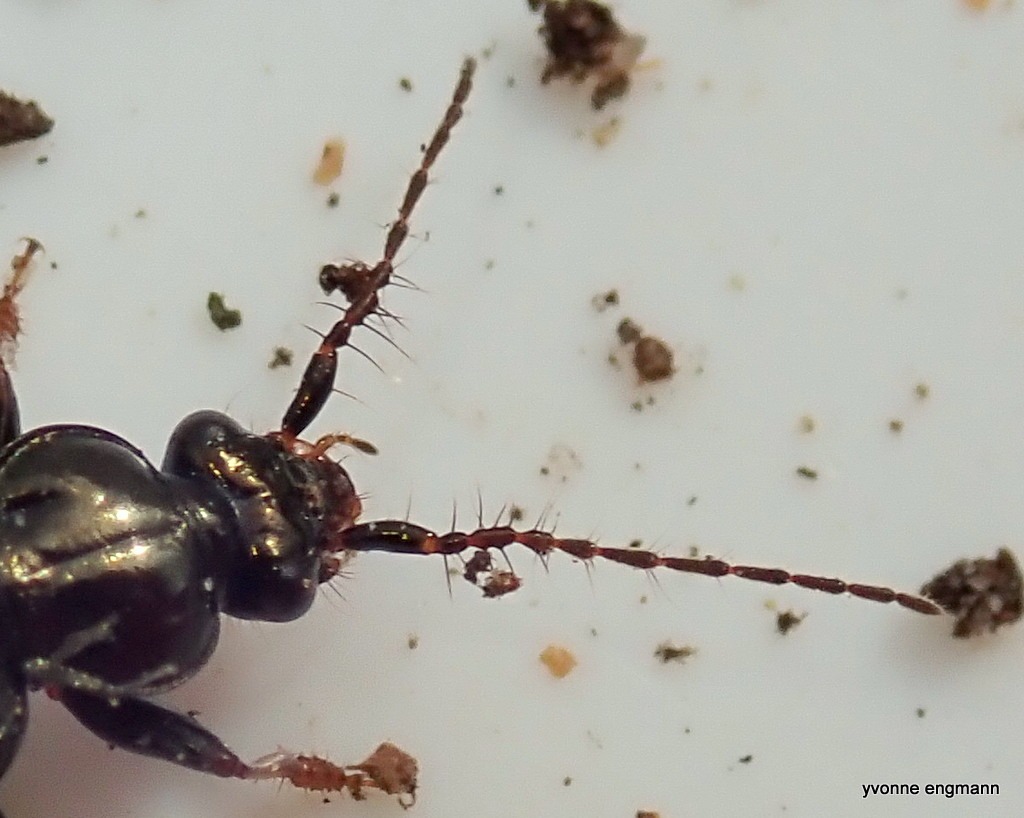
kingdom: Animalia
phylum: Arthropoda
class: Insecta
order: Coleoptera
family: Carabidae
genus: Loricera
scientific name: Loricera pilicornis
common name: Børsteløber
